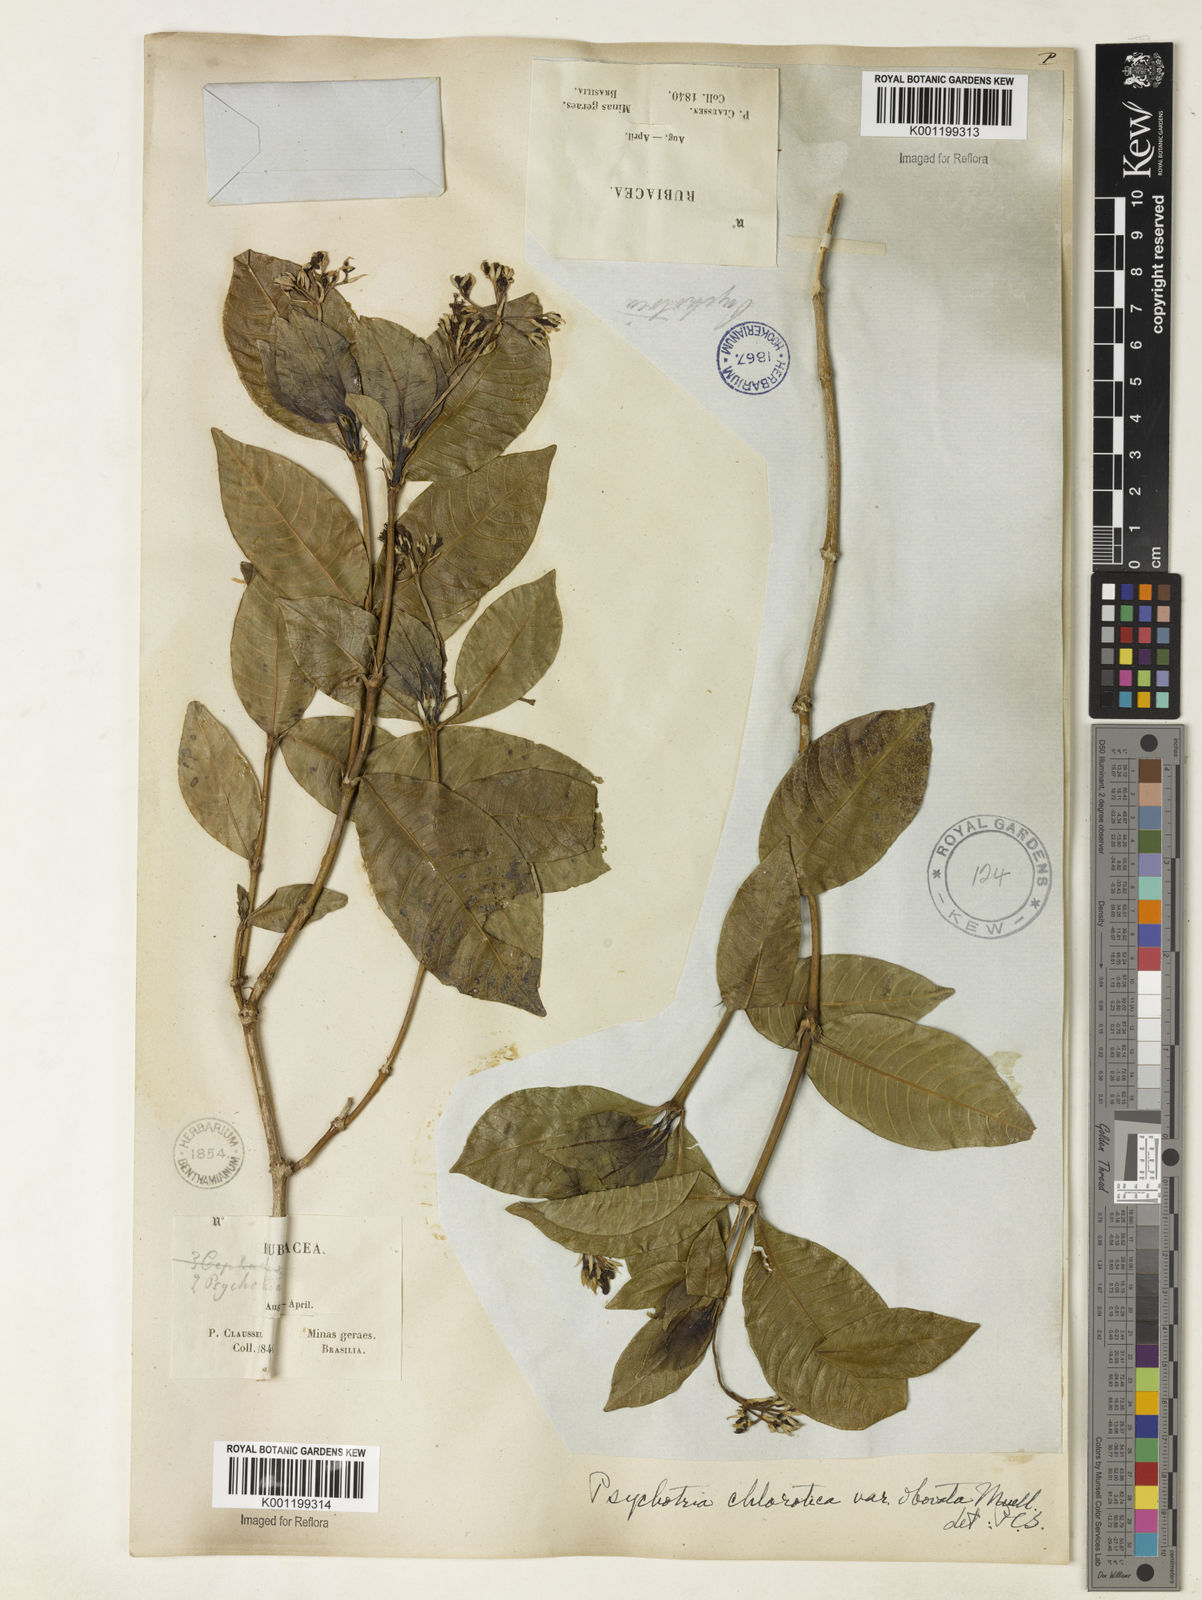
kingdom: Plantae
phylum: Tracheophyta
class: Magnoliopsida
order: Gentianales
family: Rubiaceae
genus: Palicourea
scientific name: Palicourea violacea
